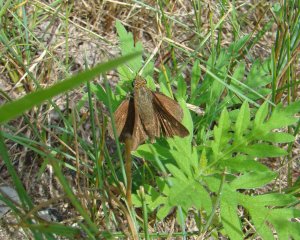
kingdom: Animalia
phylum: Arthropoda
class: Insecta
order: Lepidoptera
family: Hesperiidae
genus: Euphyes
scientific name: Euphyes vestris
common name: Dun Skipper
